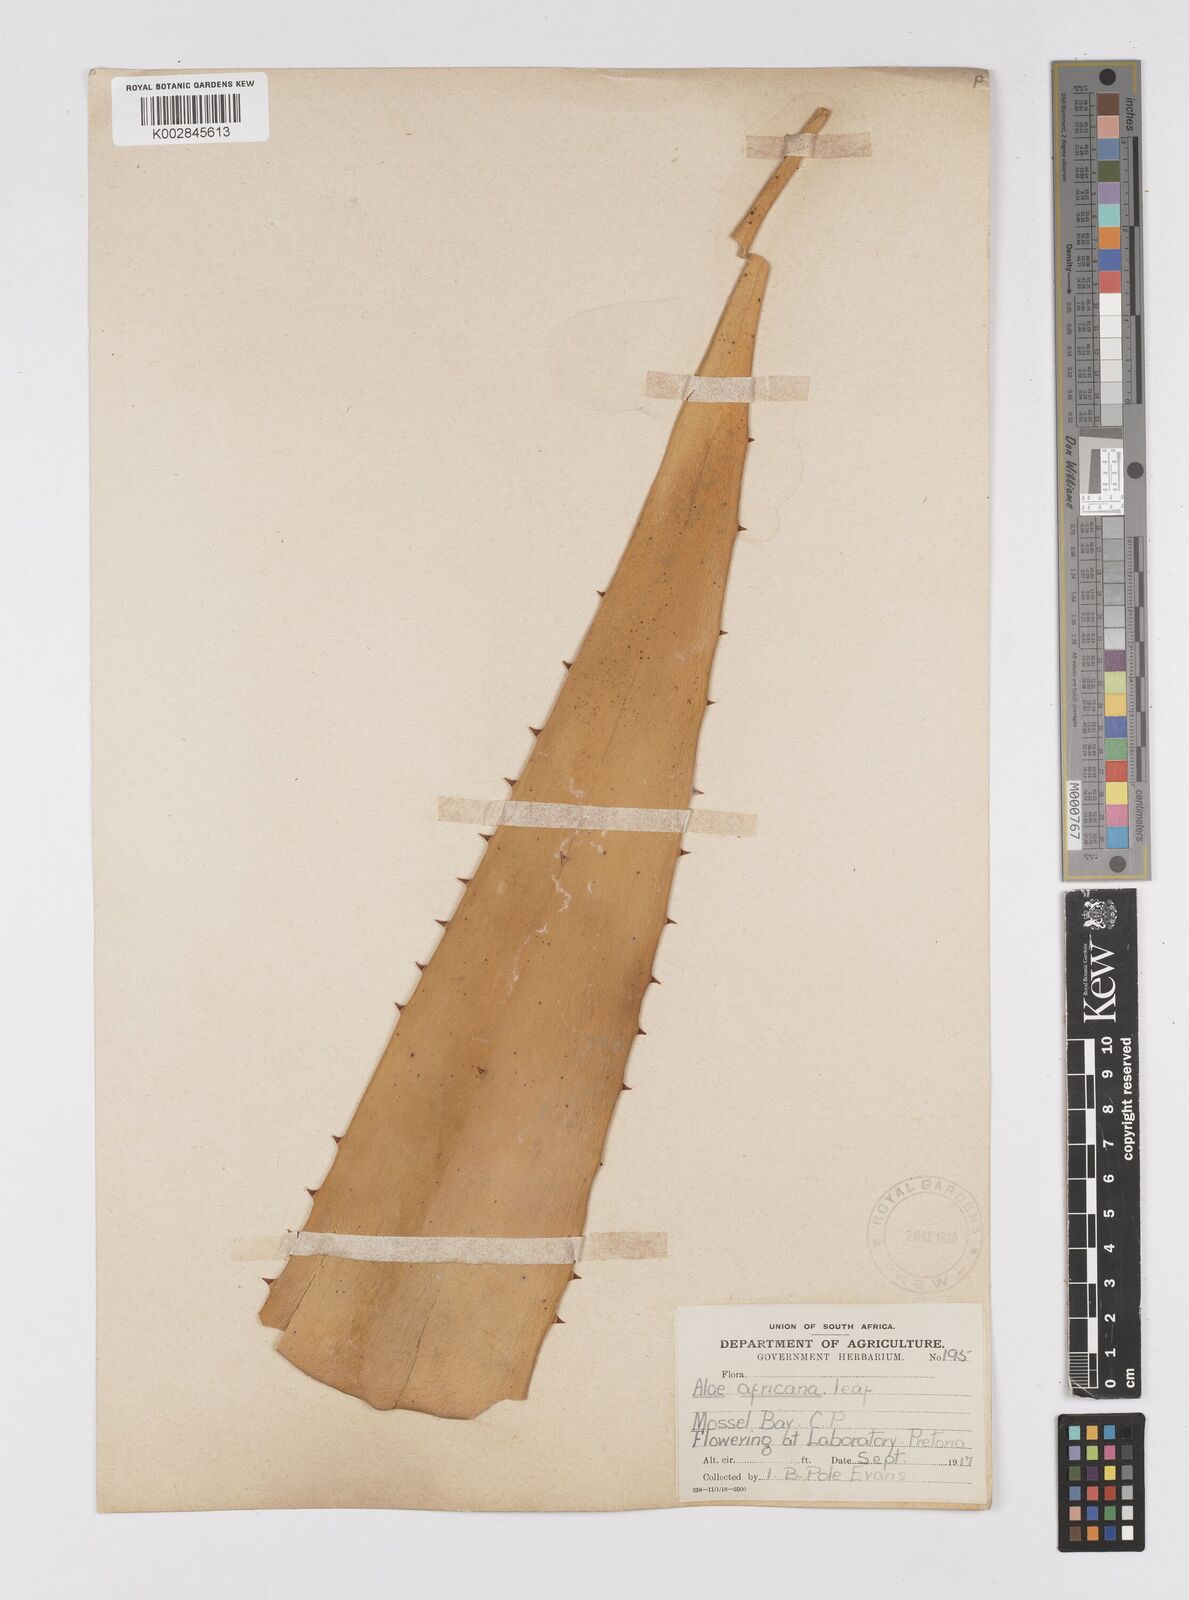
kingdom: Plantae
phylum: Tracheophyta
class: Liliopsida
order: Asparagales
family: Asphodelaceae
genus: Aloe
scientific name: Aloe africana
